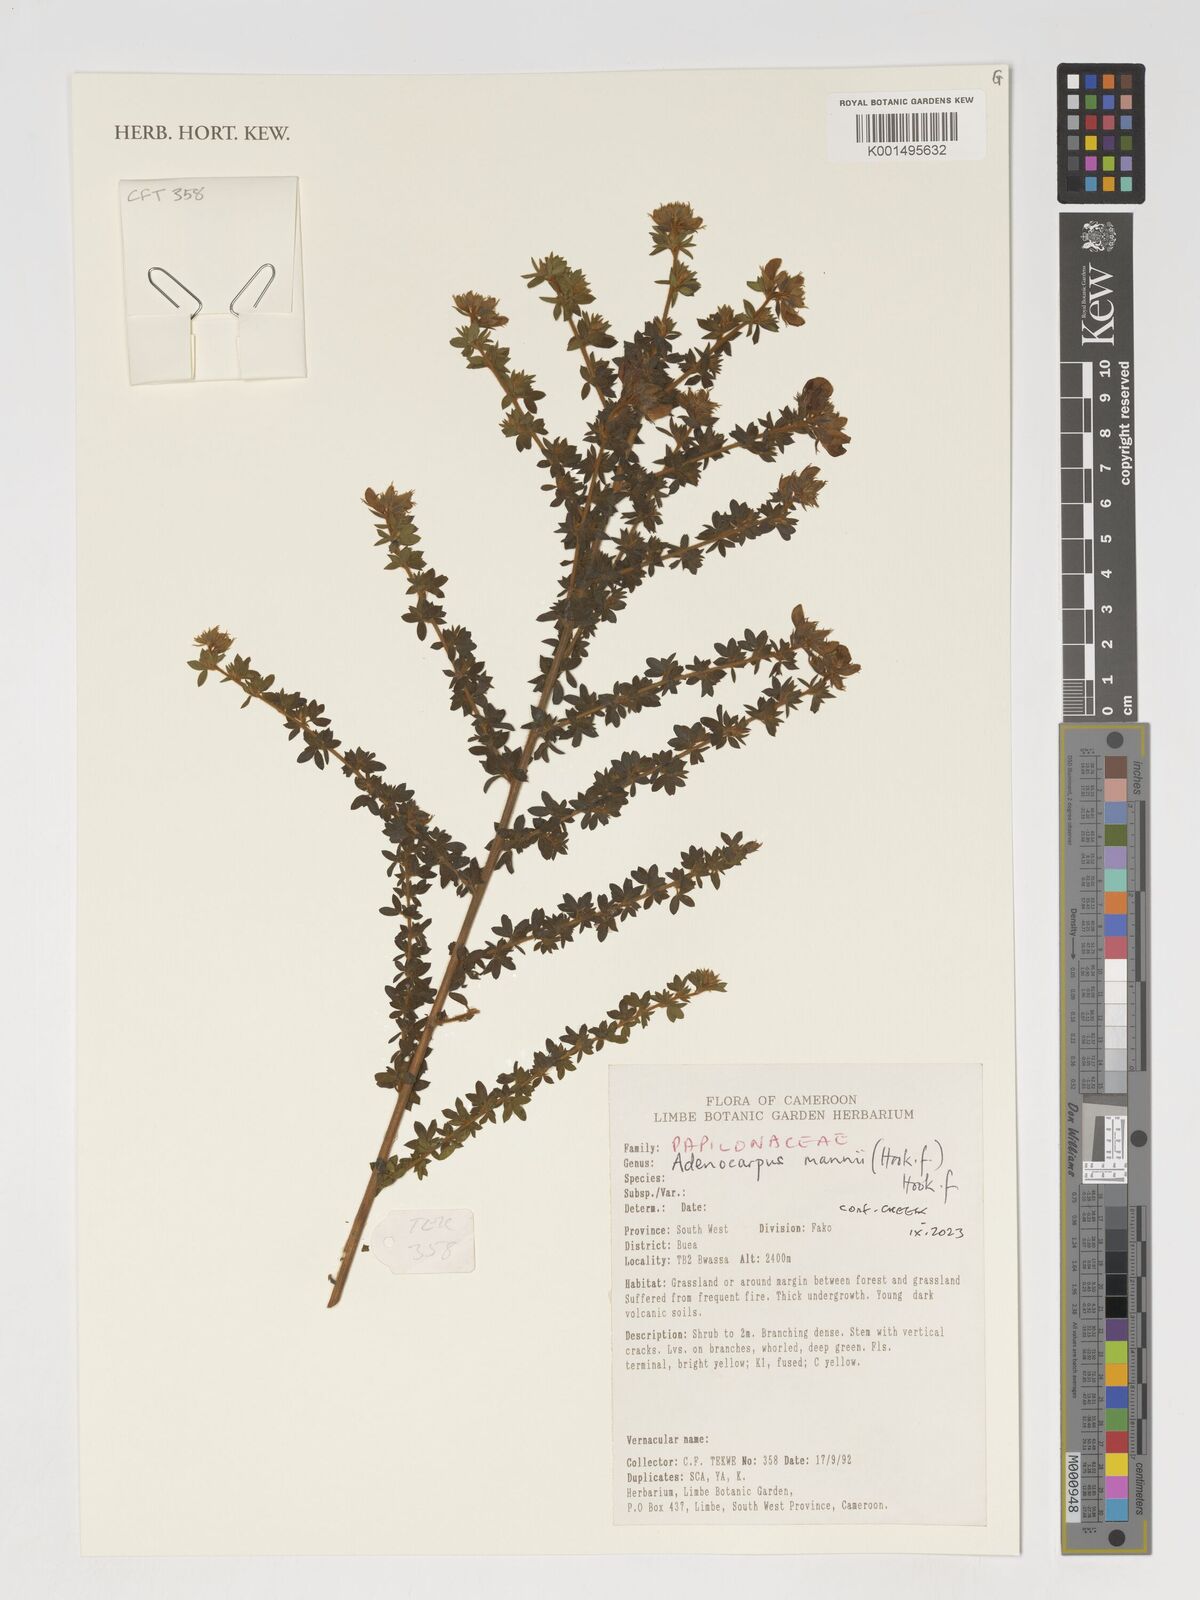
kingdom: Plantae
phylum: Tracheophyta
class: Magnoliopsida
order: Fabales
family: Fabaceae
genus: Adenocarpus
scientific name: Adenocarpus mannii
